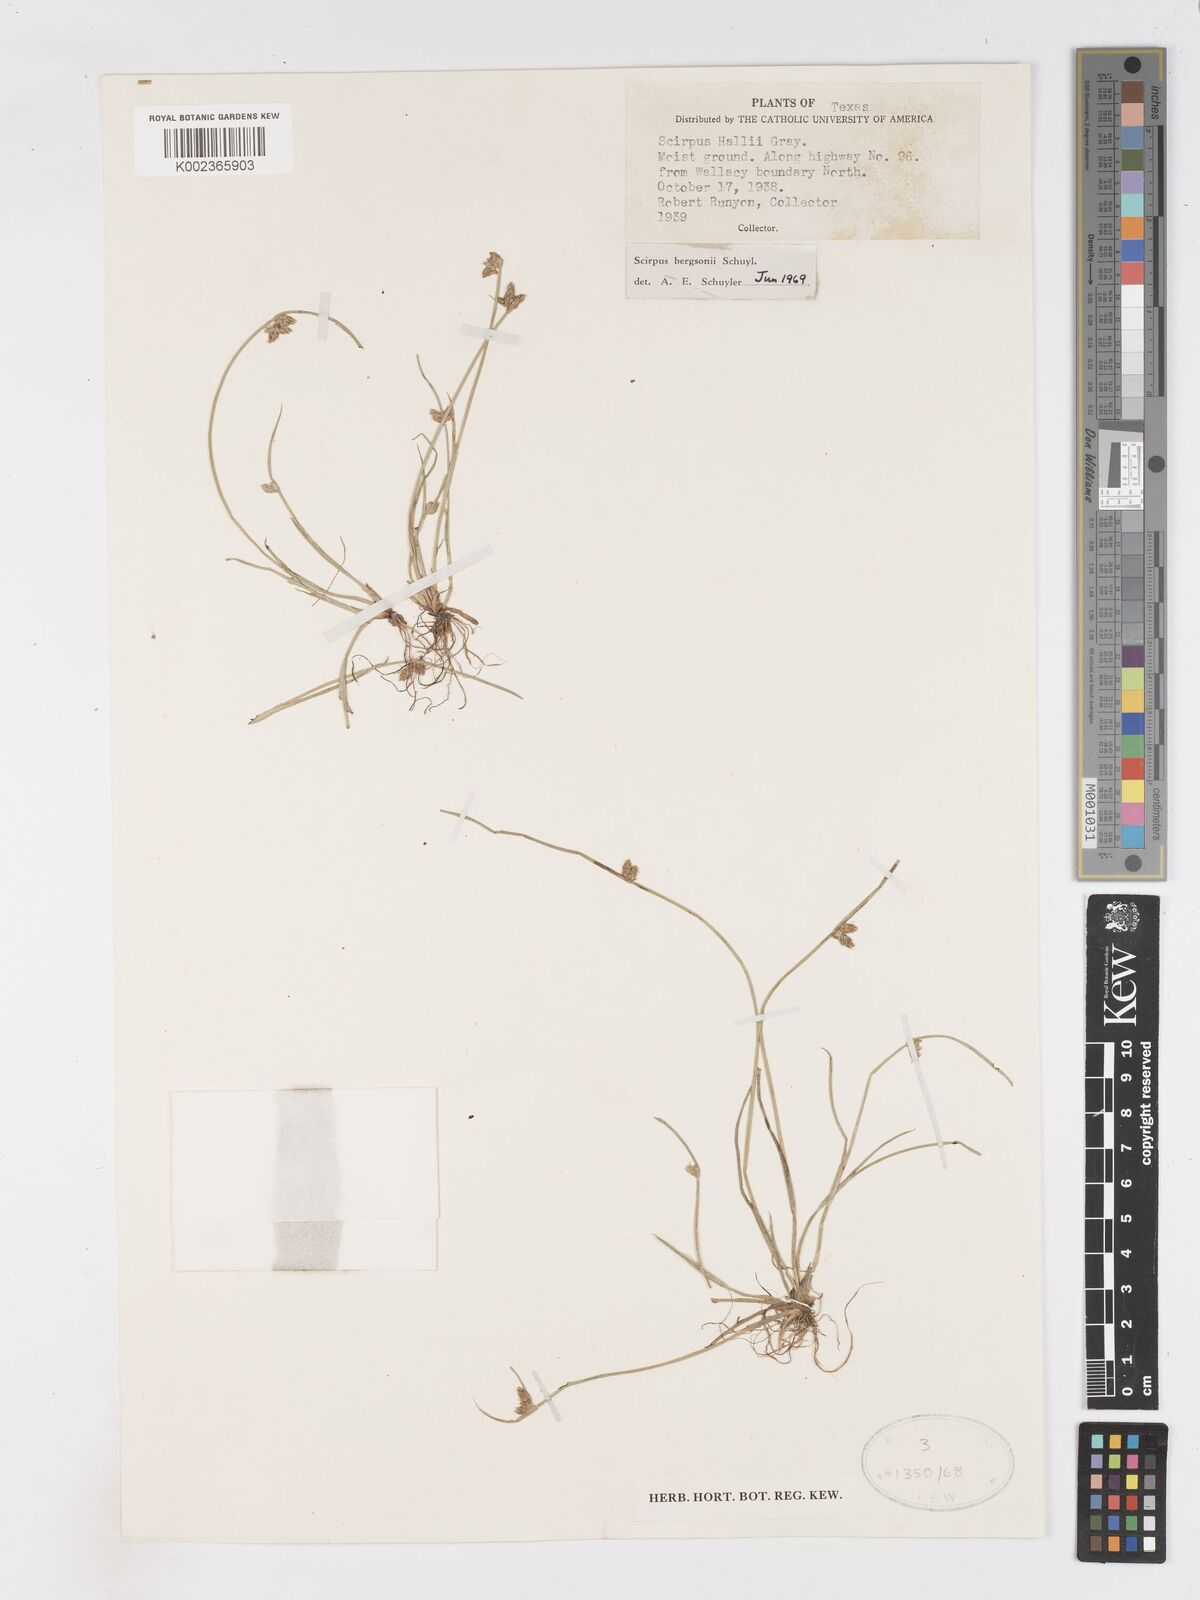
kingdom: Plantae
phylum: Tracheophyta
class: Liliopsida
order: Poales
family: Cyperaceae
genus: Schoenoplectiella
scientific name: Schoenoplectiella saximontana
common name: Rocky mountain clubrush
